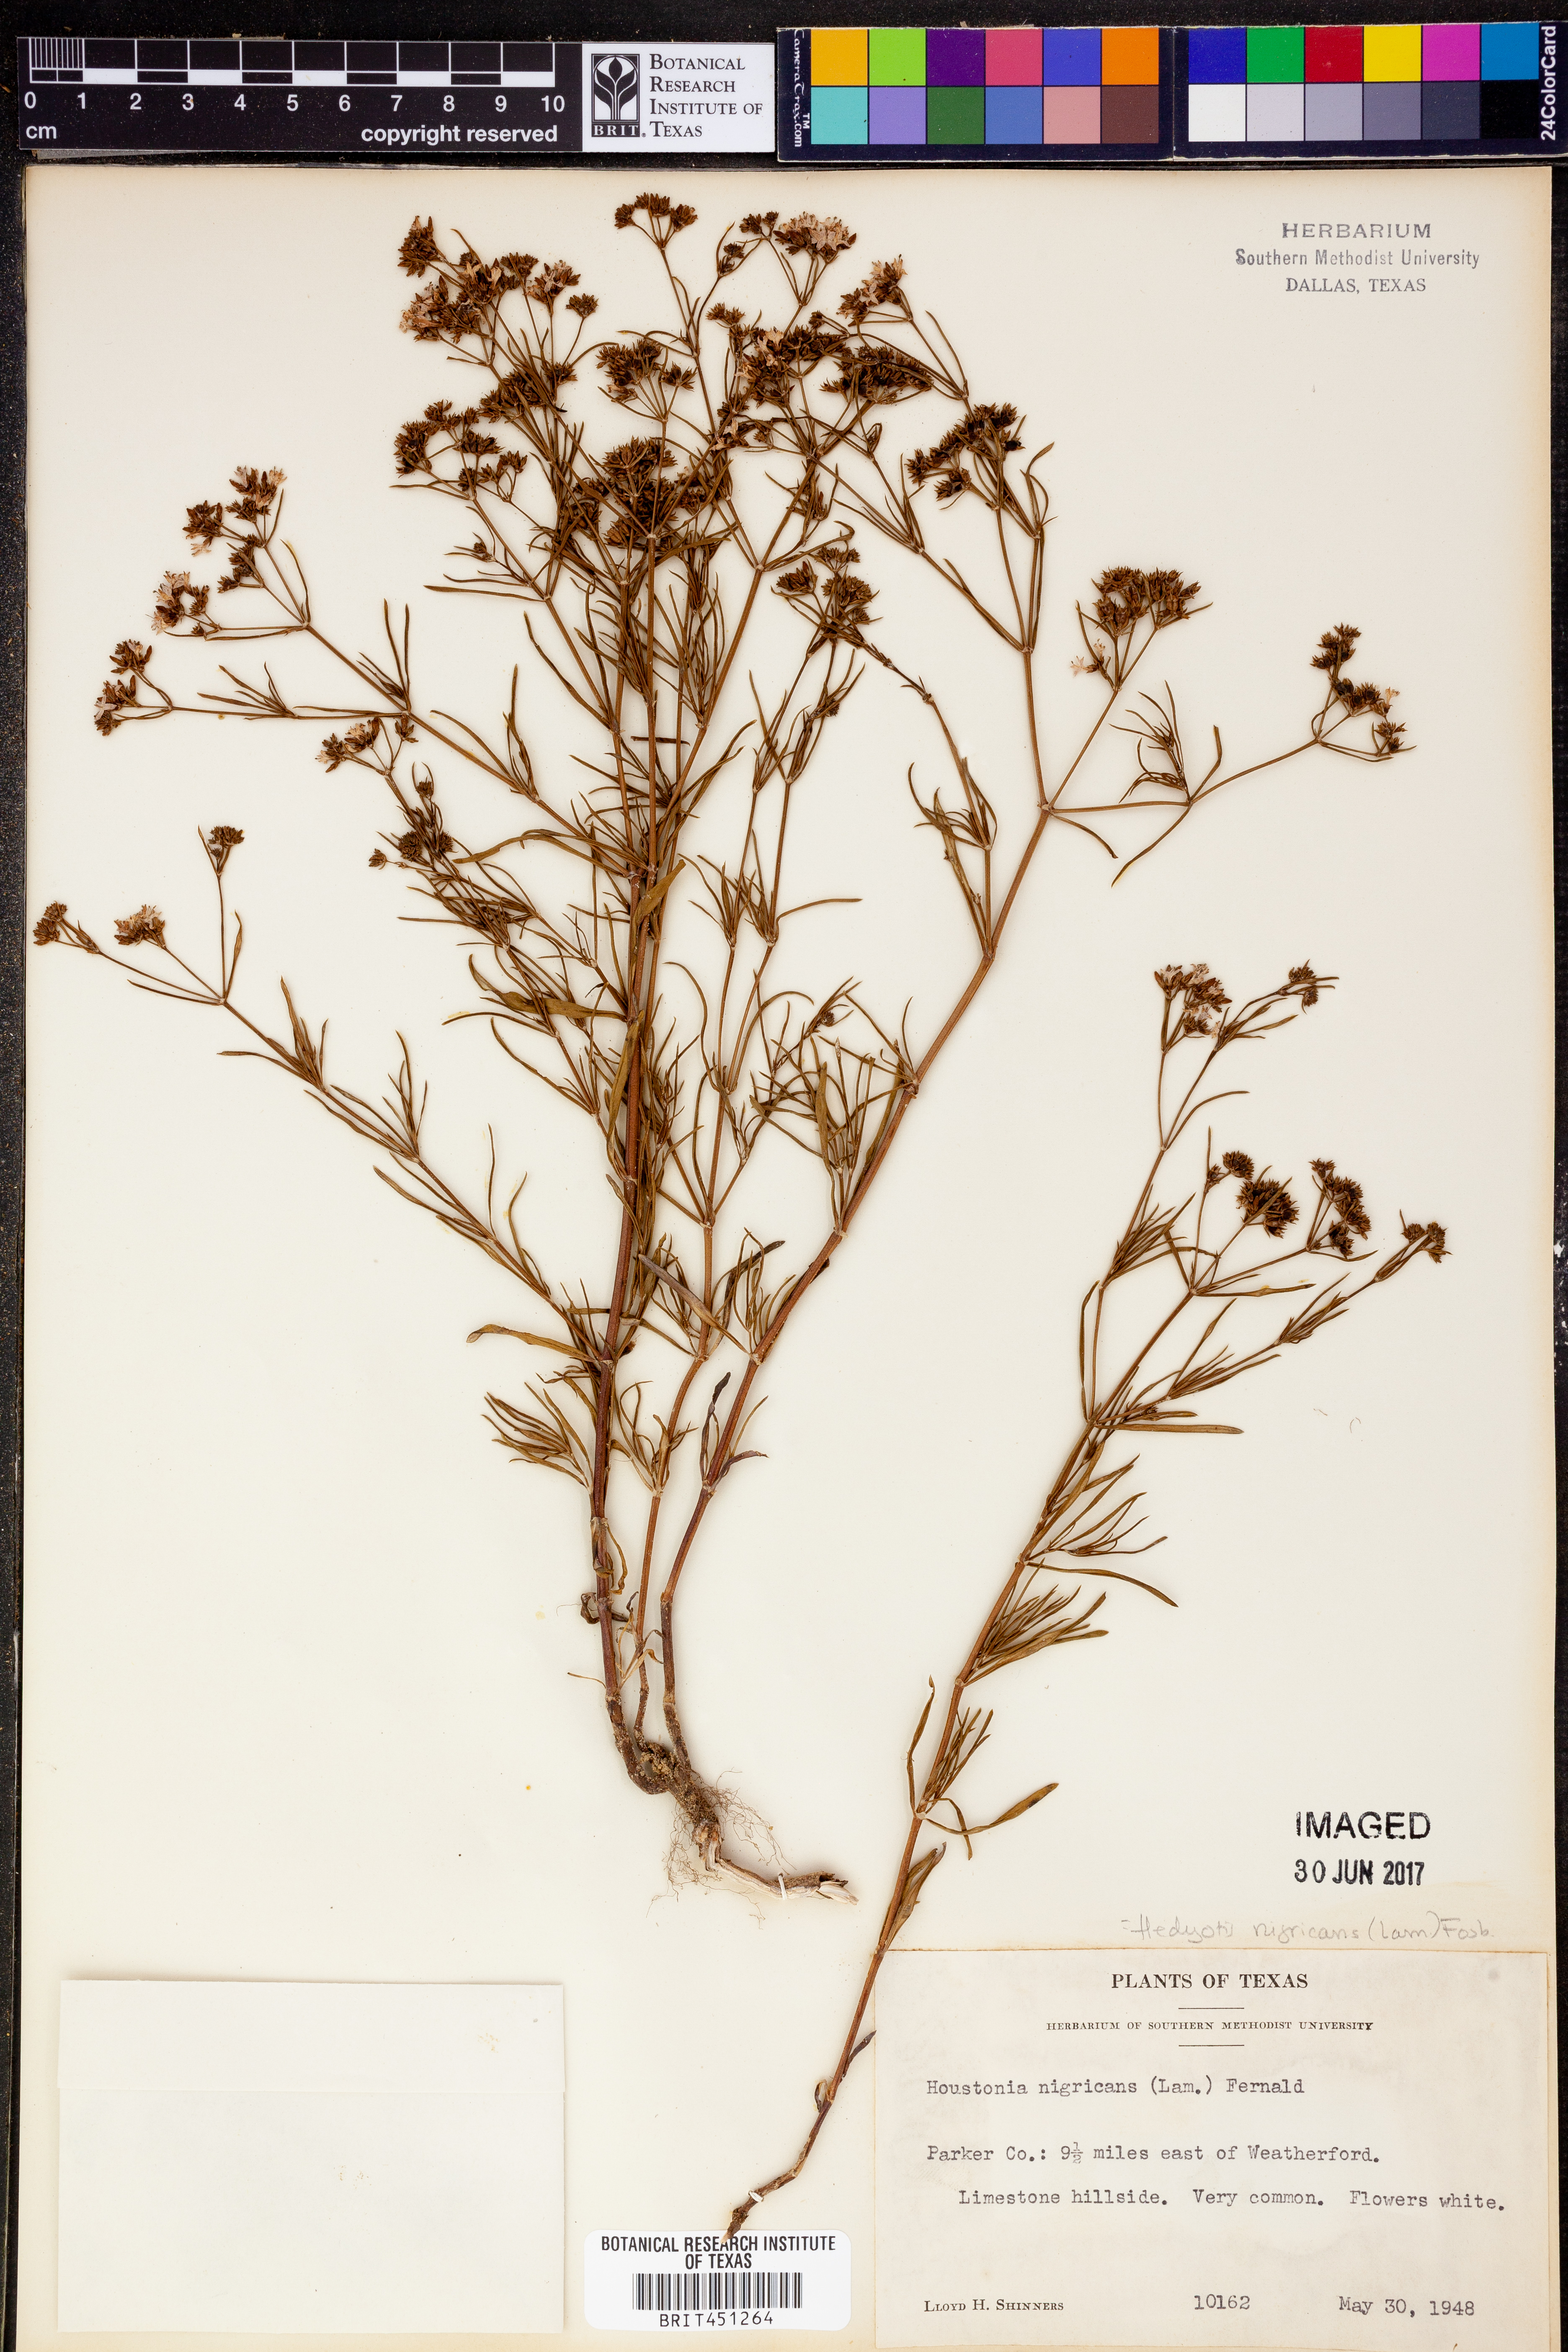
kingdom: Plantae
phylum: Tracheophyta
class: Magnoliopsida
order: Gentianales
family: Rubiaceae
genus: Stenaria
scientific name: Stenaria nigricans
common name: Diamondflowers
